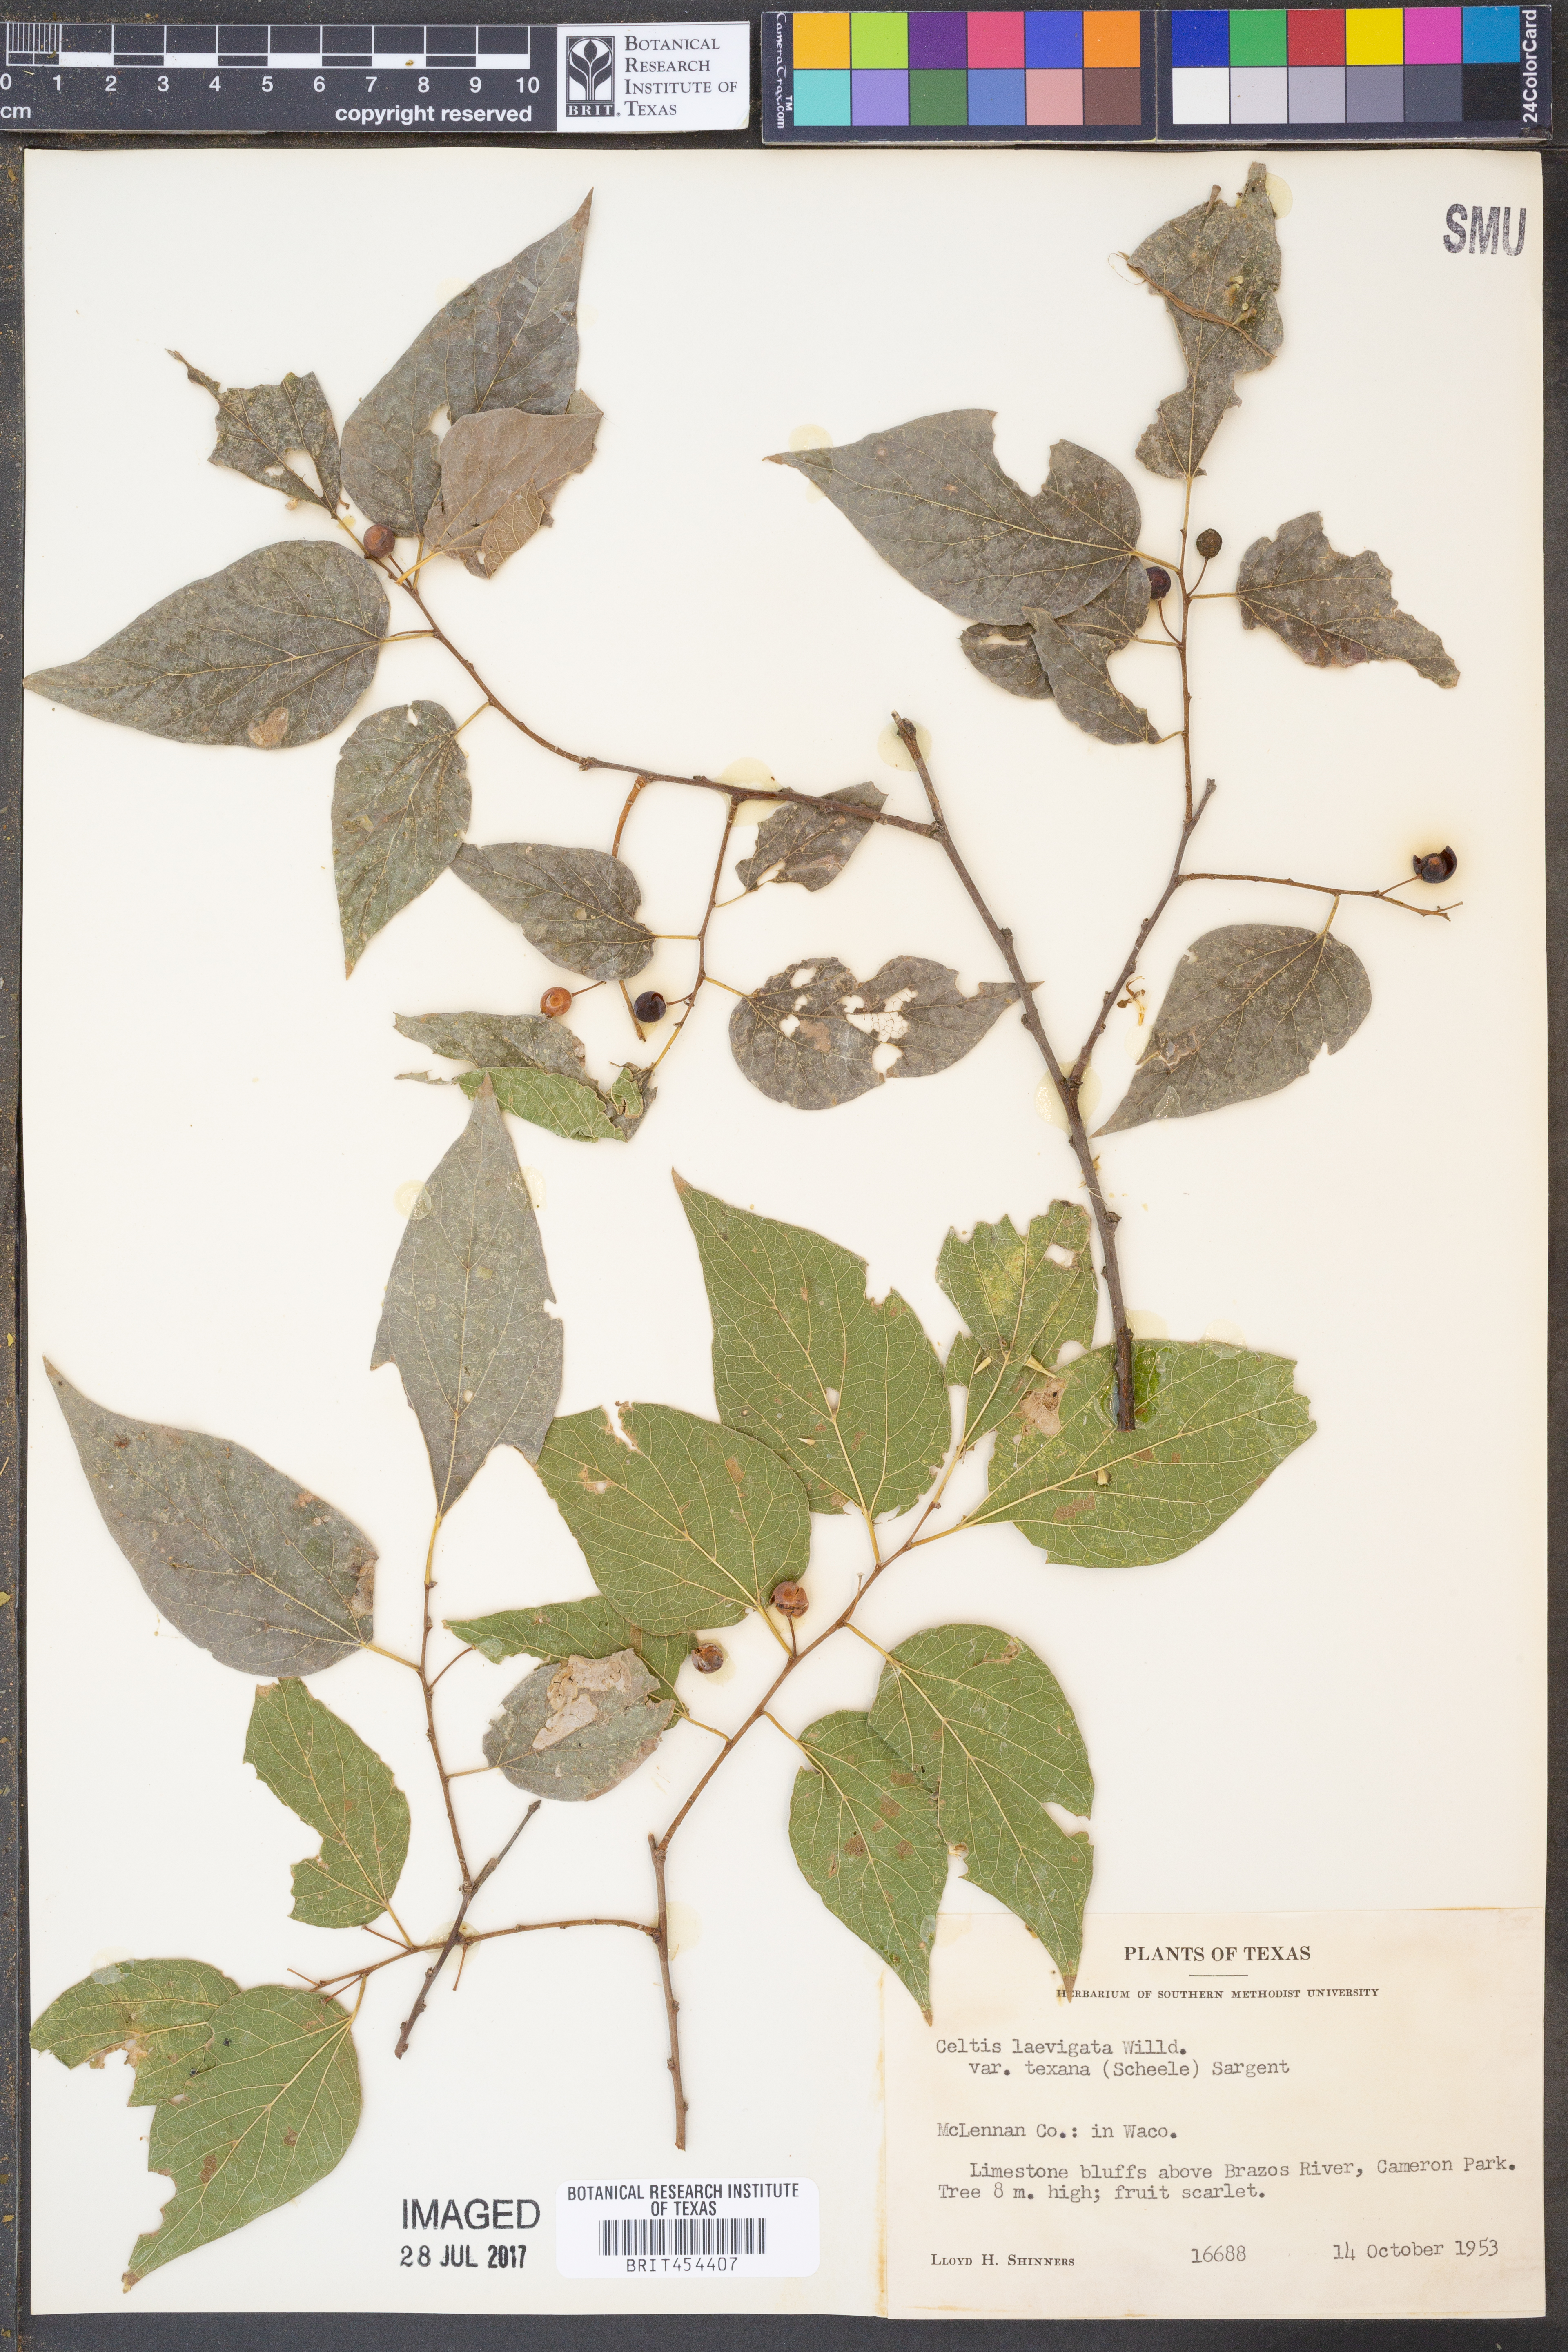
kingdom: Plantae
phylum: Tracheophyta
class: Magnoliopsida
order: Rosales
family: Cannabaceae
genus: Celtis
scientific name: Celtis laevigata
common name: Sugarberry
